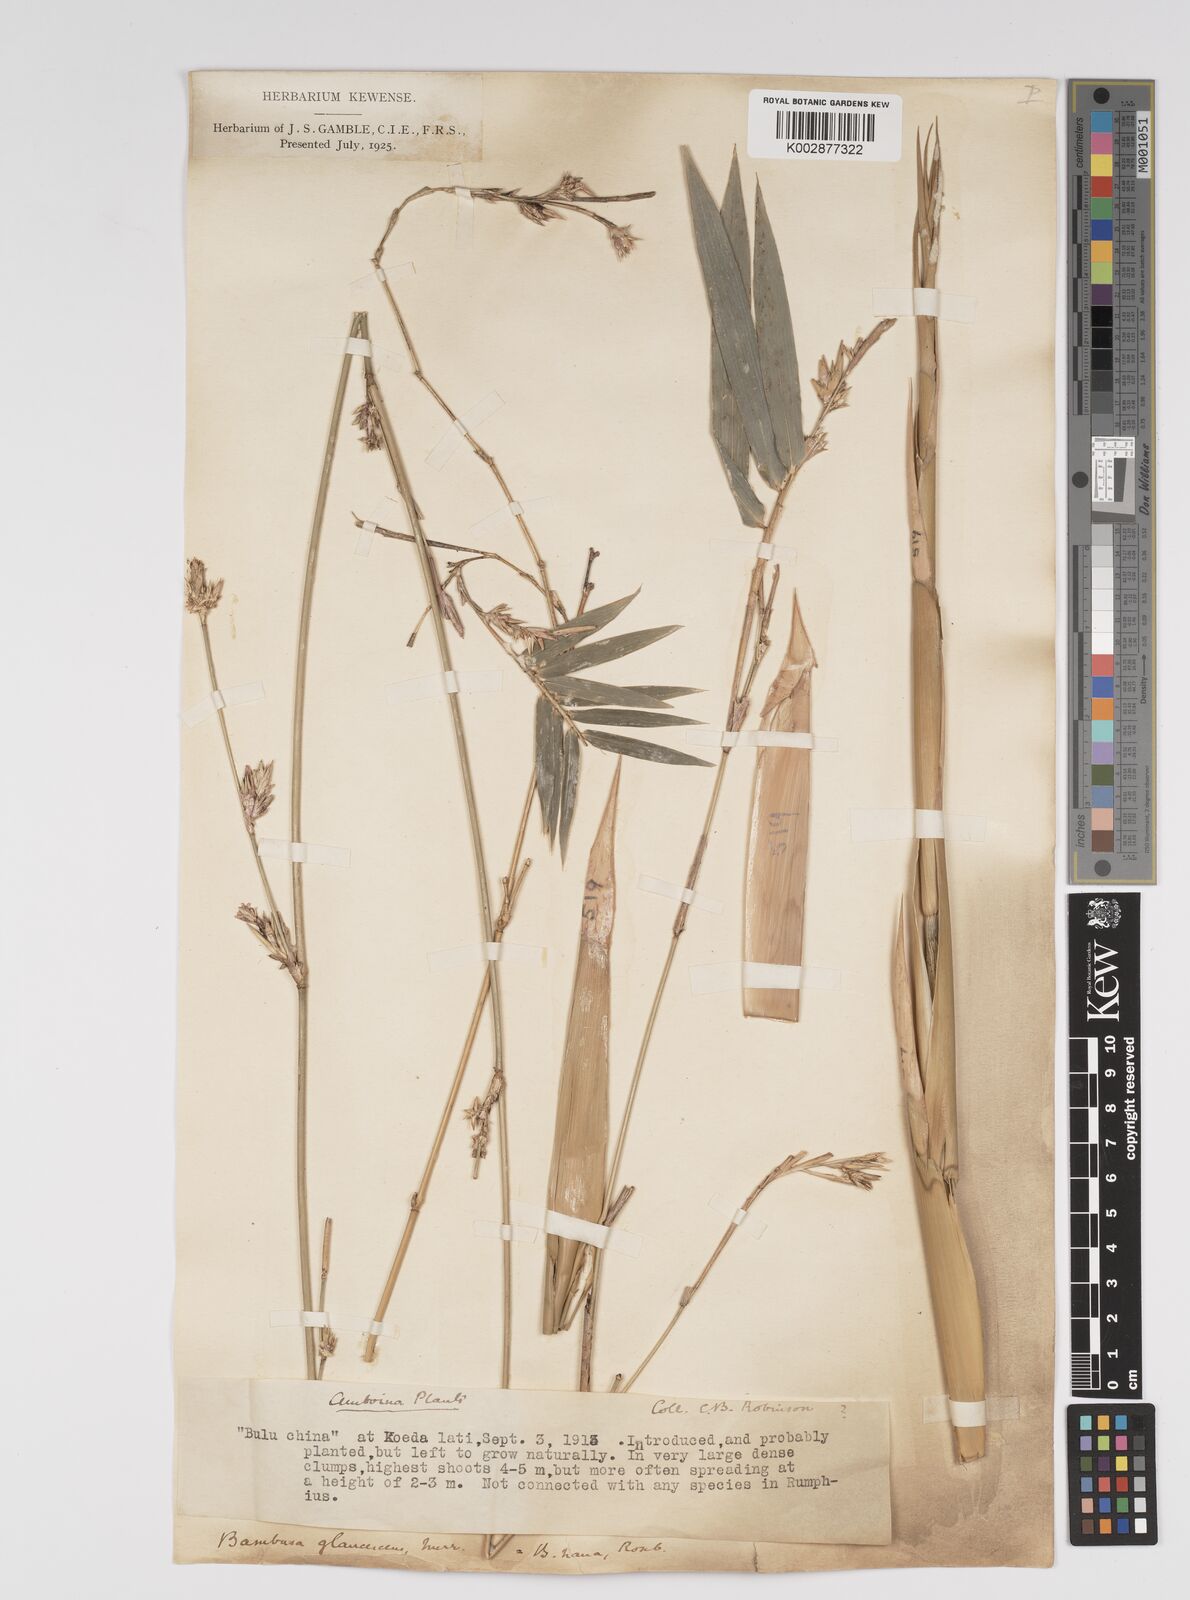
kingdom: Plantae
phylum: Tracheophyta
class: Liliopsida
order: Poales
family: Poaceae
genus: Bambusa
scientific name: Bambusa multiplex
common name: Hedge bamboo
